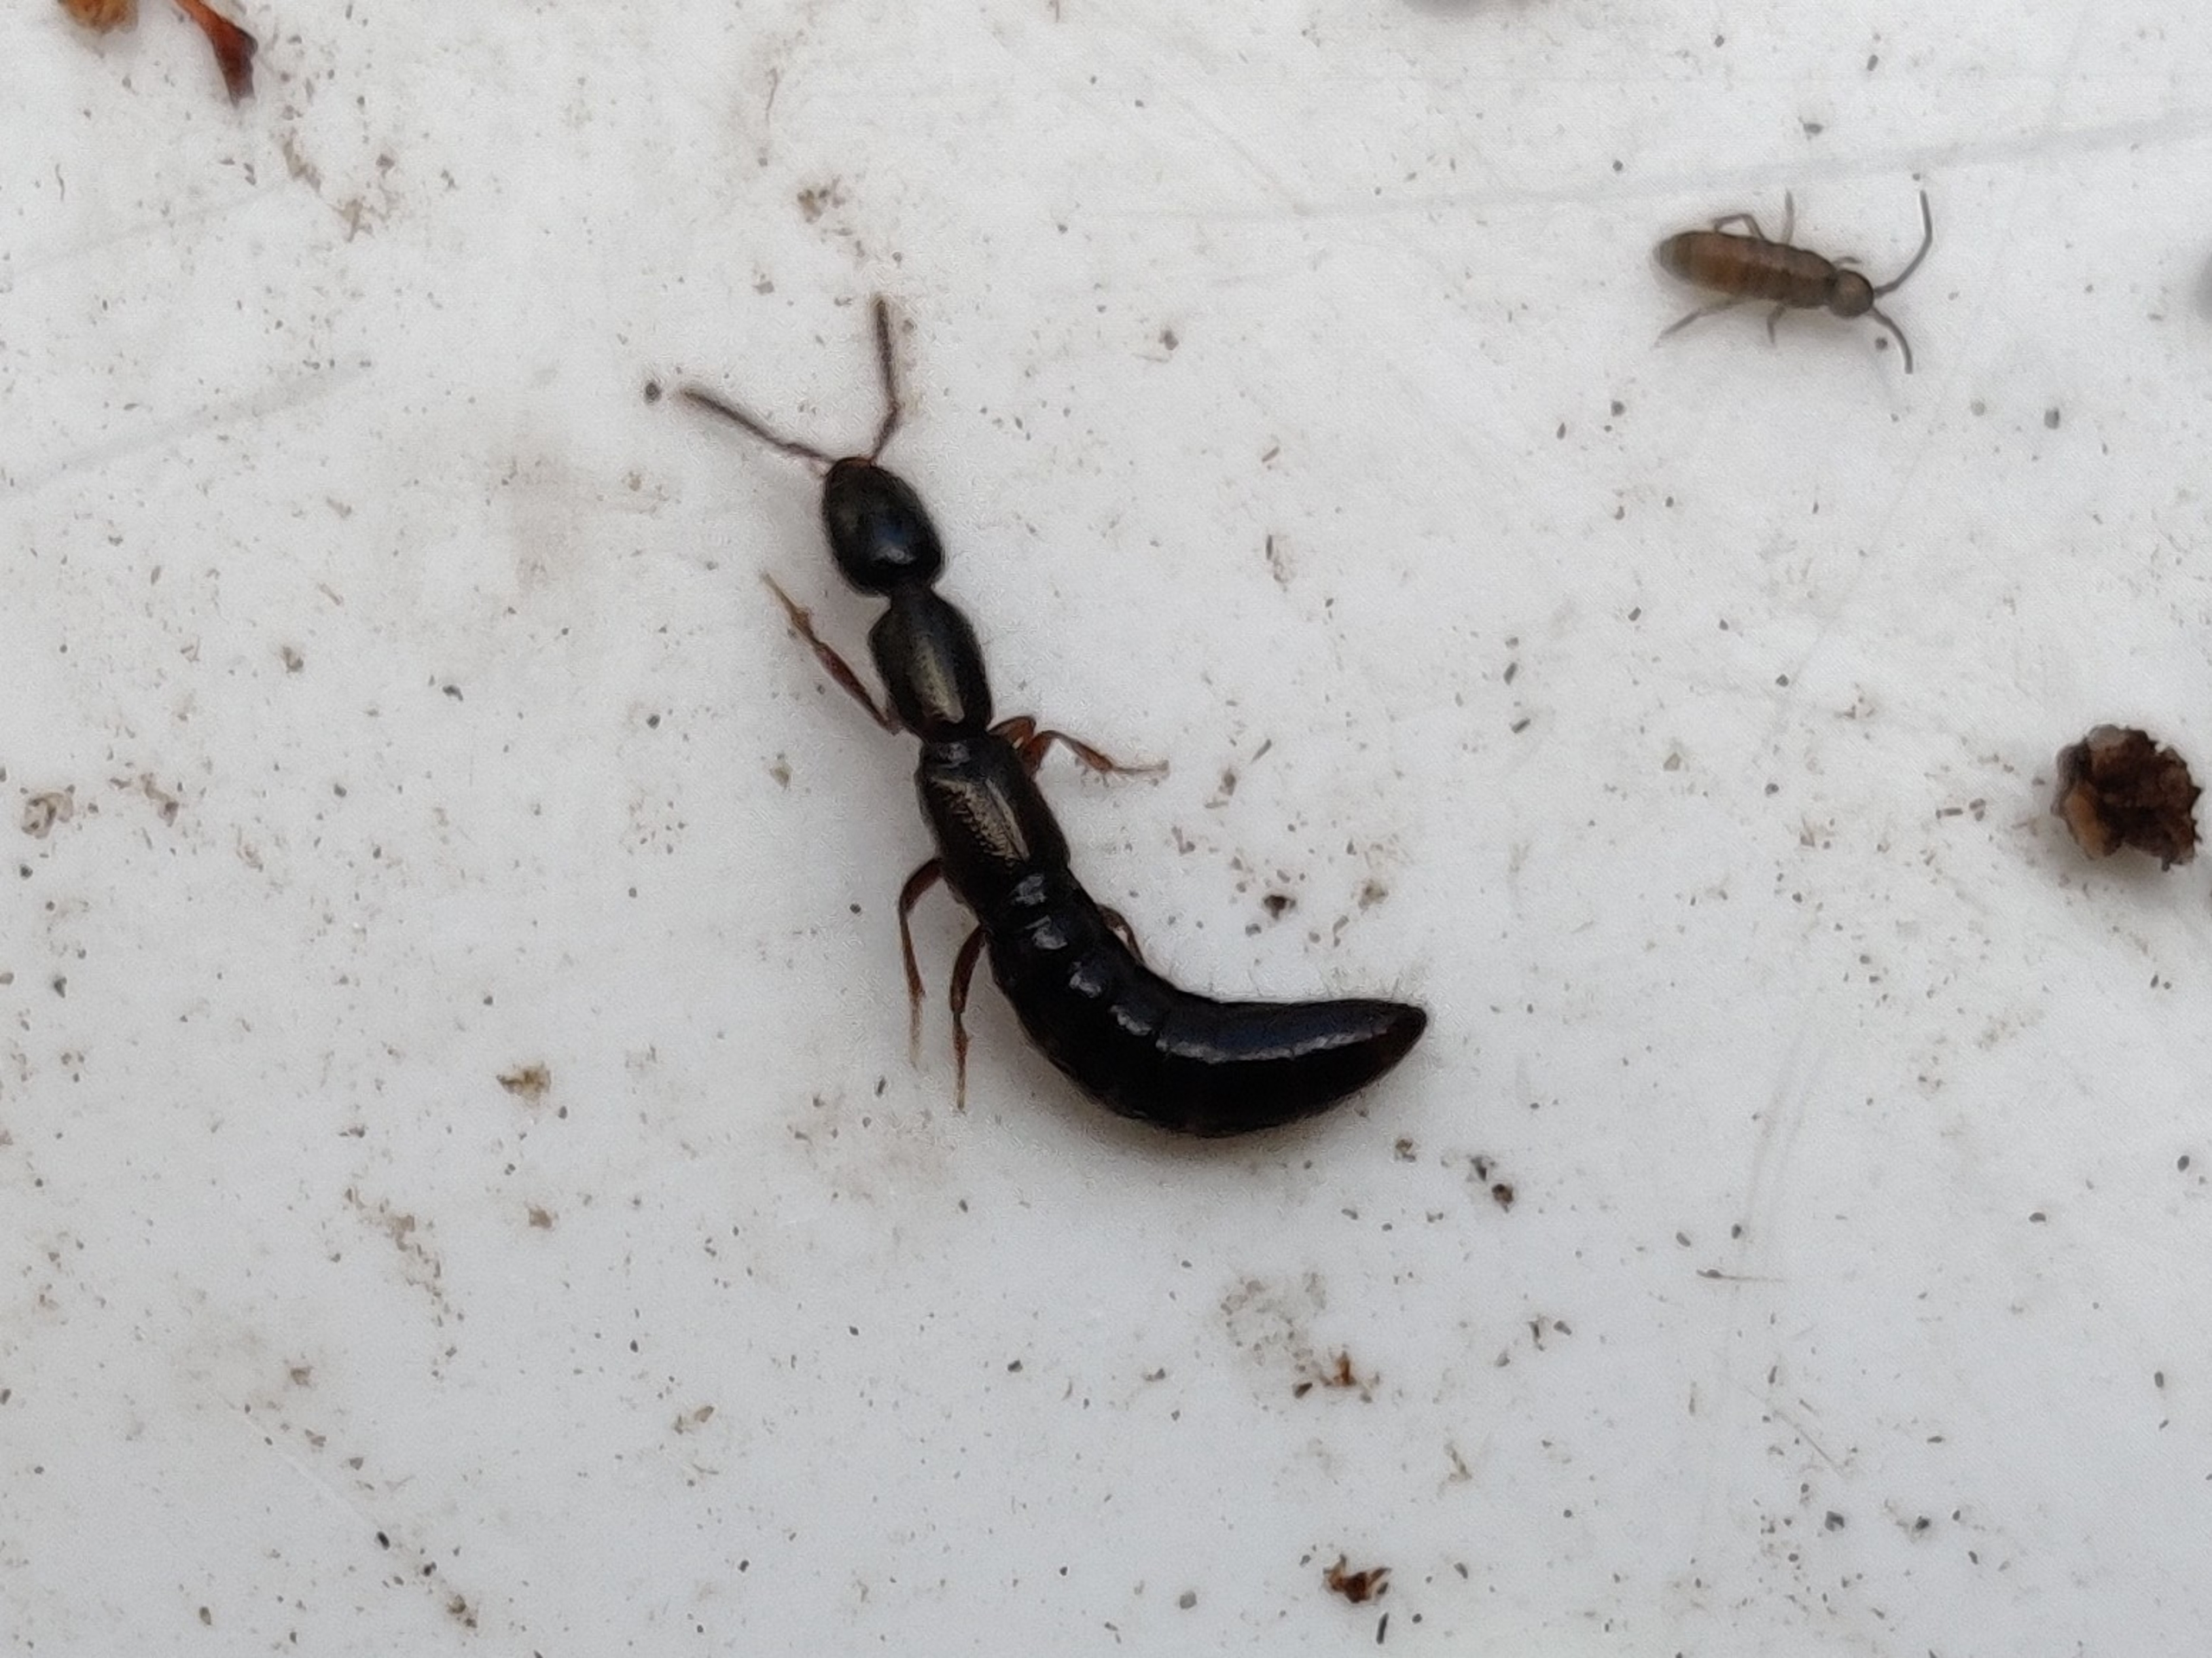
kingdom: Animalia
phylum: Arthropoda
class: Insecta
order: Coleoptera
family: Staphylinidae
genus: Xantholinus
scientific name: Xantholinus
